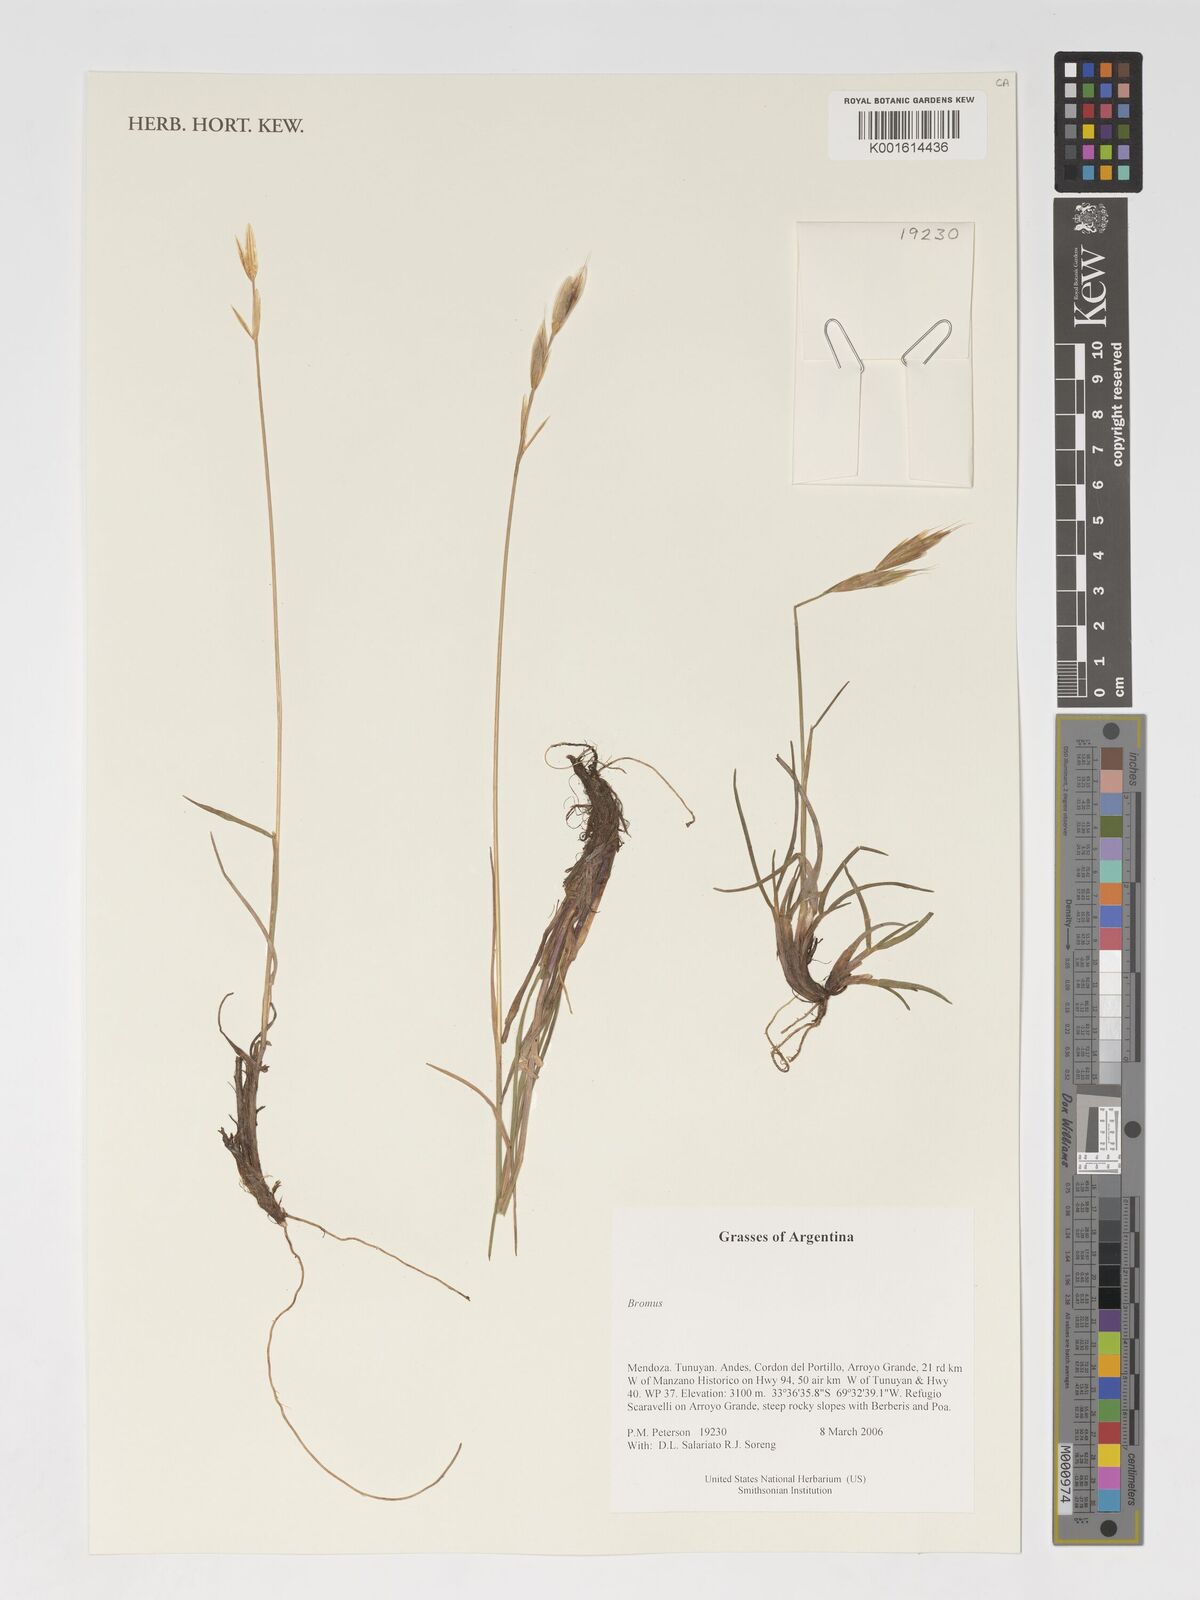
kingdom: Plantae
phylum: Tracheophyta
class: Liliopsida
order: Poales
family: Poaceae
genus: Bromus
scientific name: Bromus
